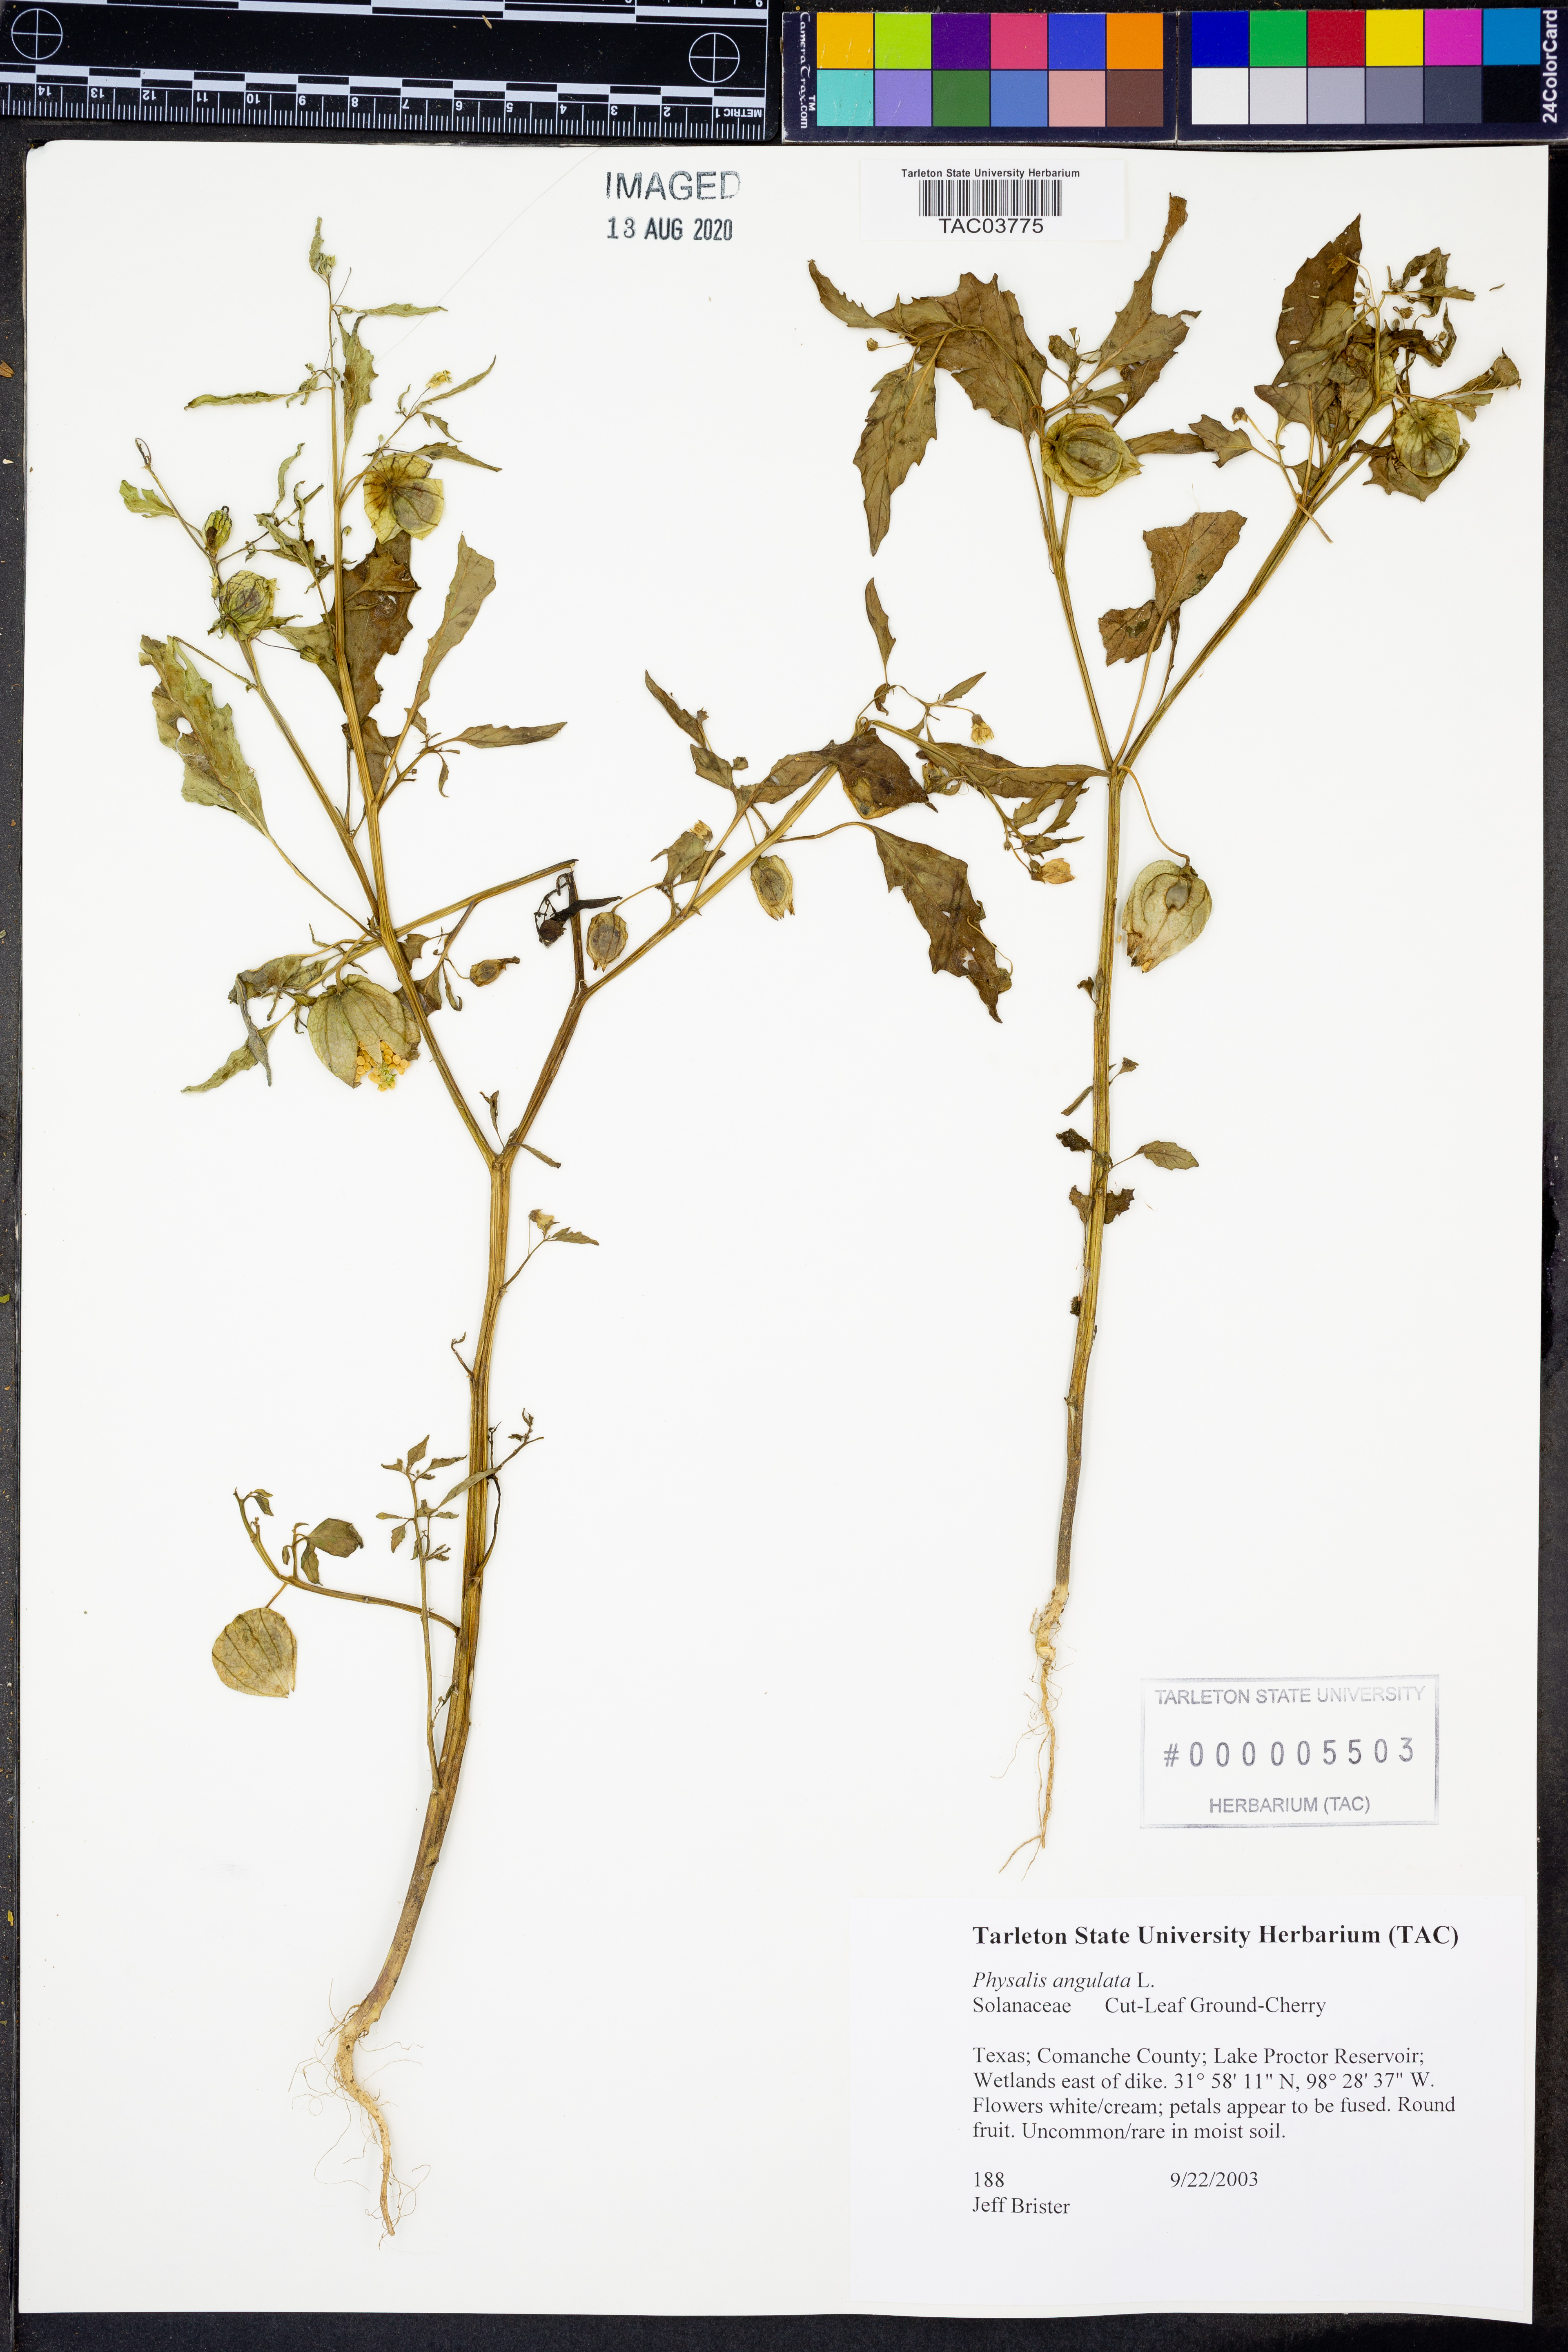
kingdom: Plantae
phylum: Tracheophyta
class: Magnoliopsida
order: Solanales
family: Solanaceae
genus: Physalis
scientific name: Physalis angulata
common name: Angular winter-cherry
